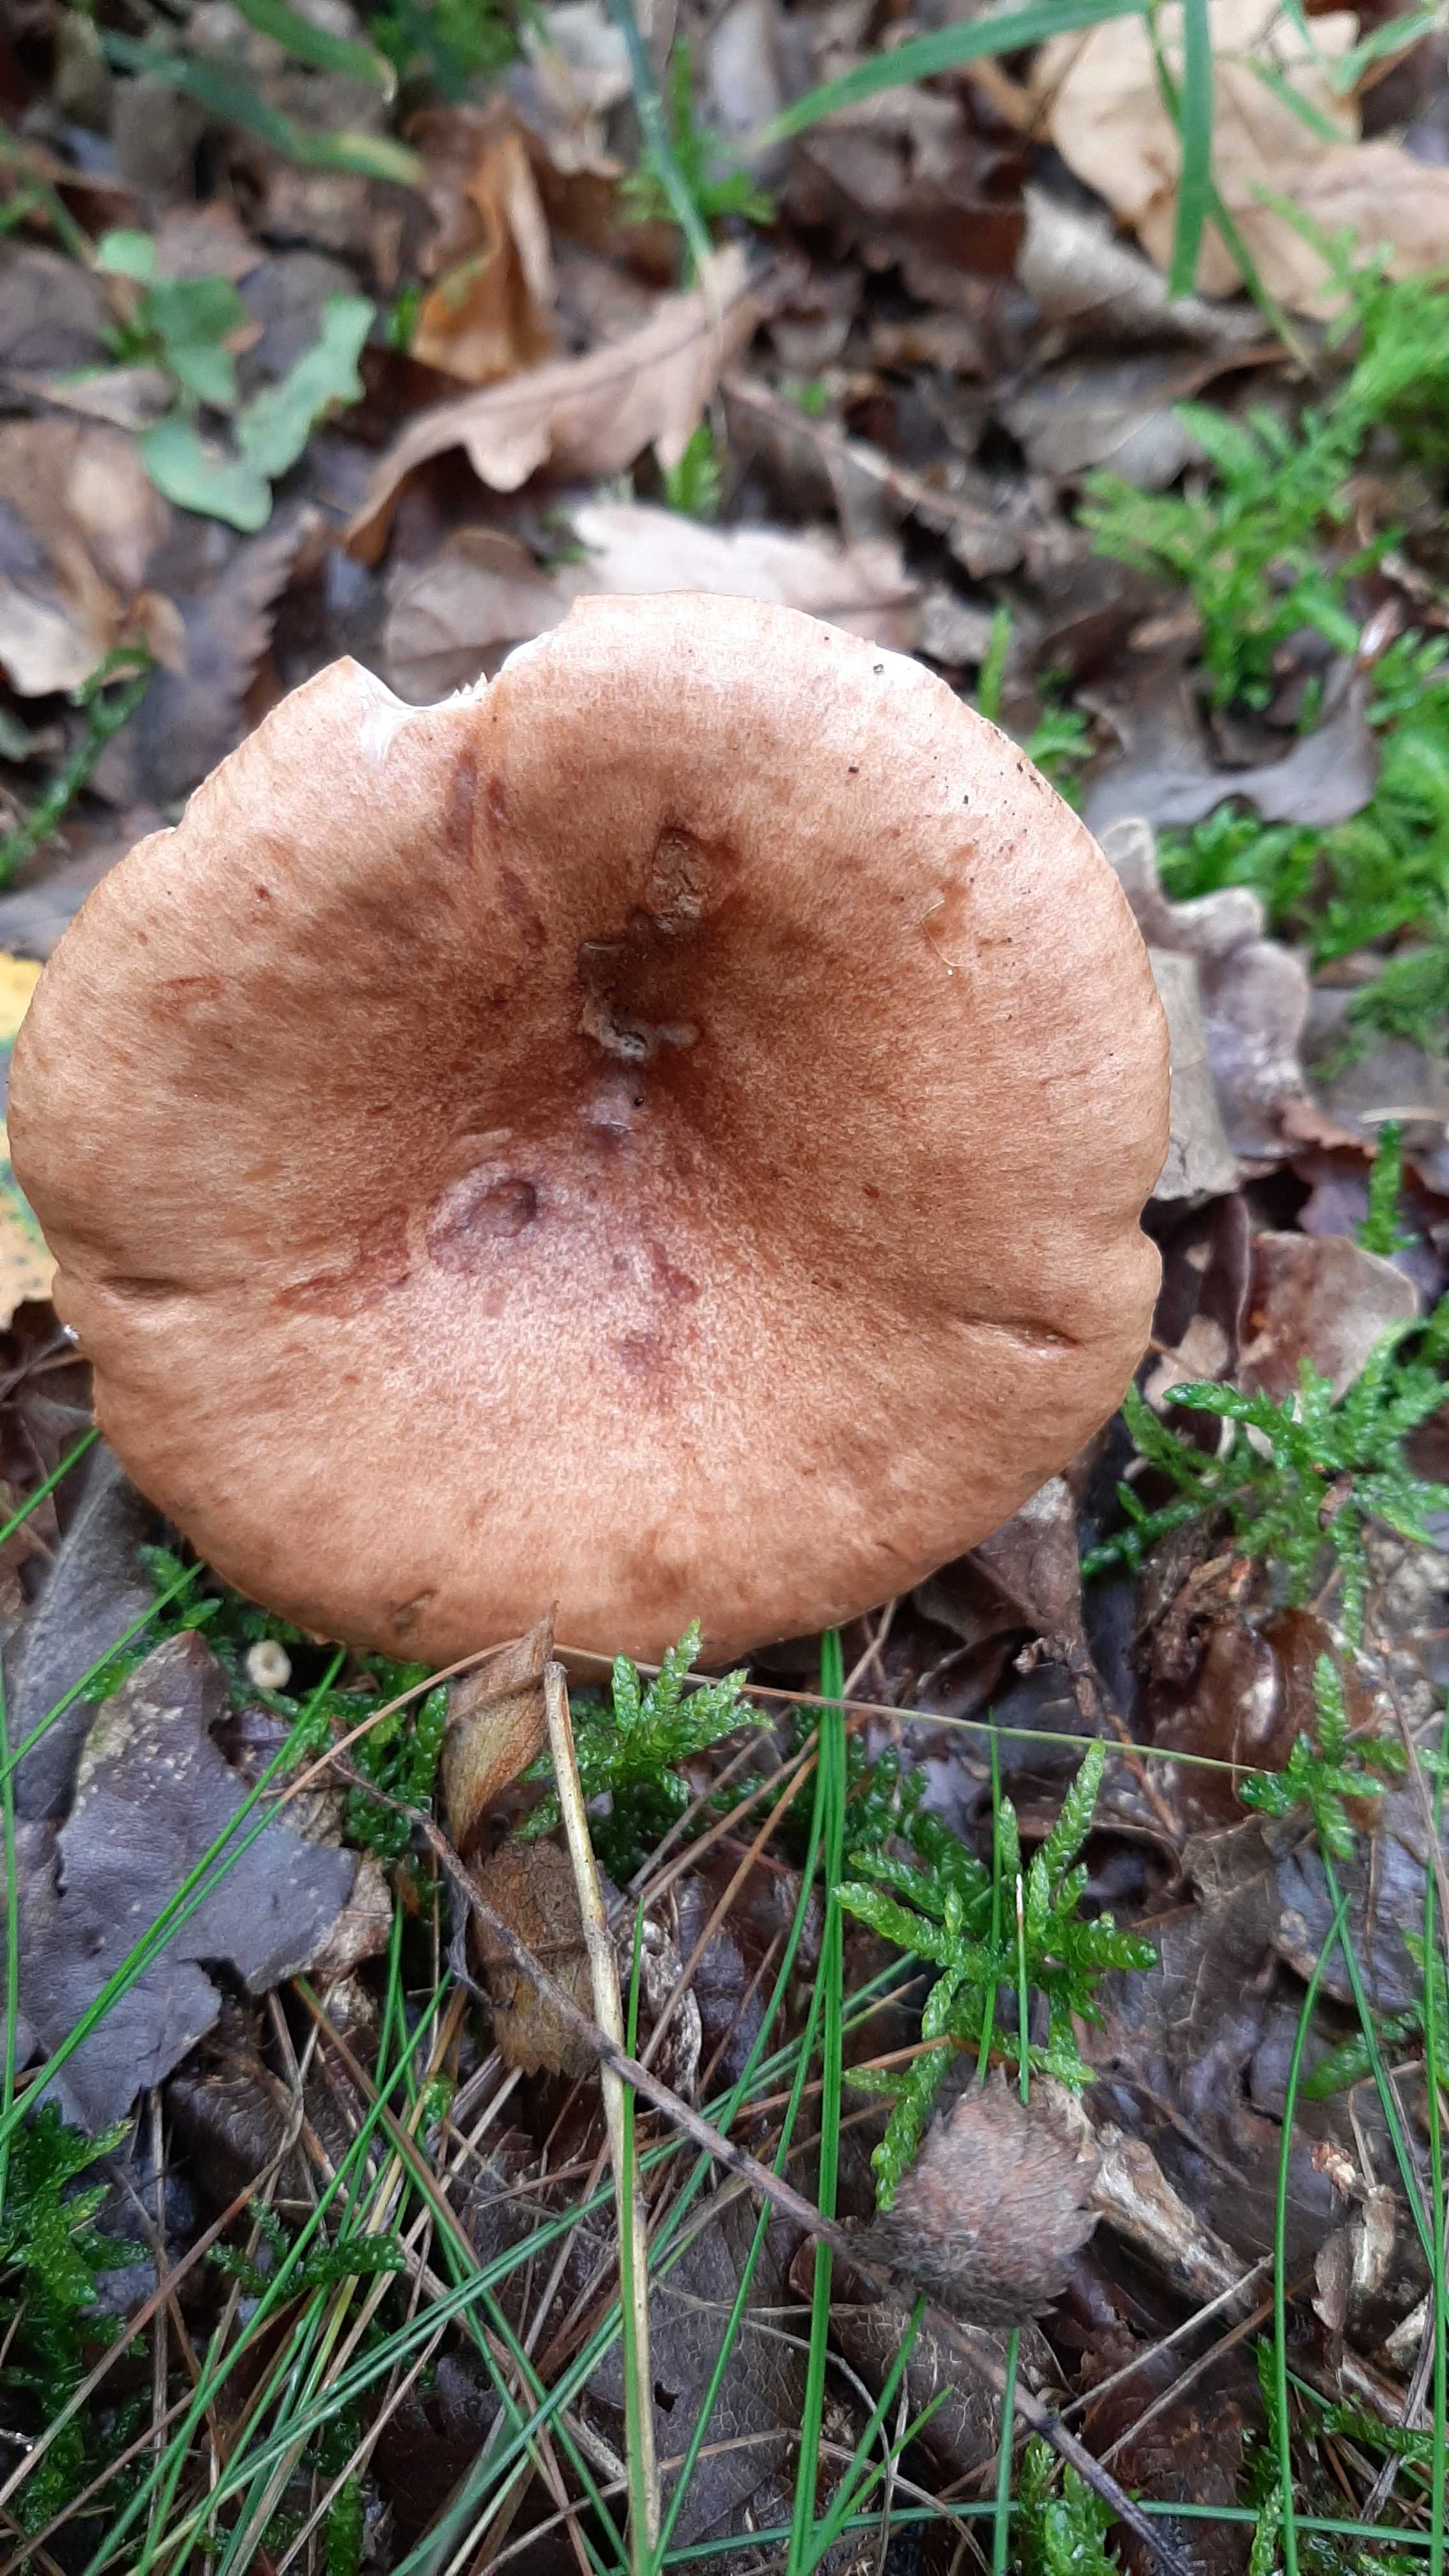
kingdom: Fungi
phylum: Basidiomycota
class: Agaricomycetes
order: Russulales
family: Russulaceae
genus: Lactarius
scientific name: Lactarius quietus
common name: ege-mælkehat
